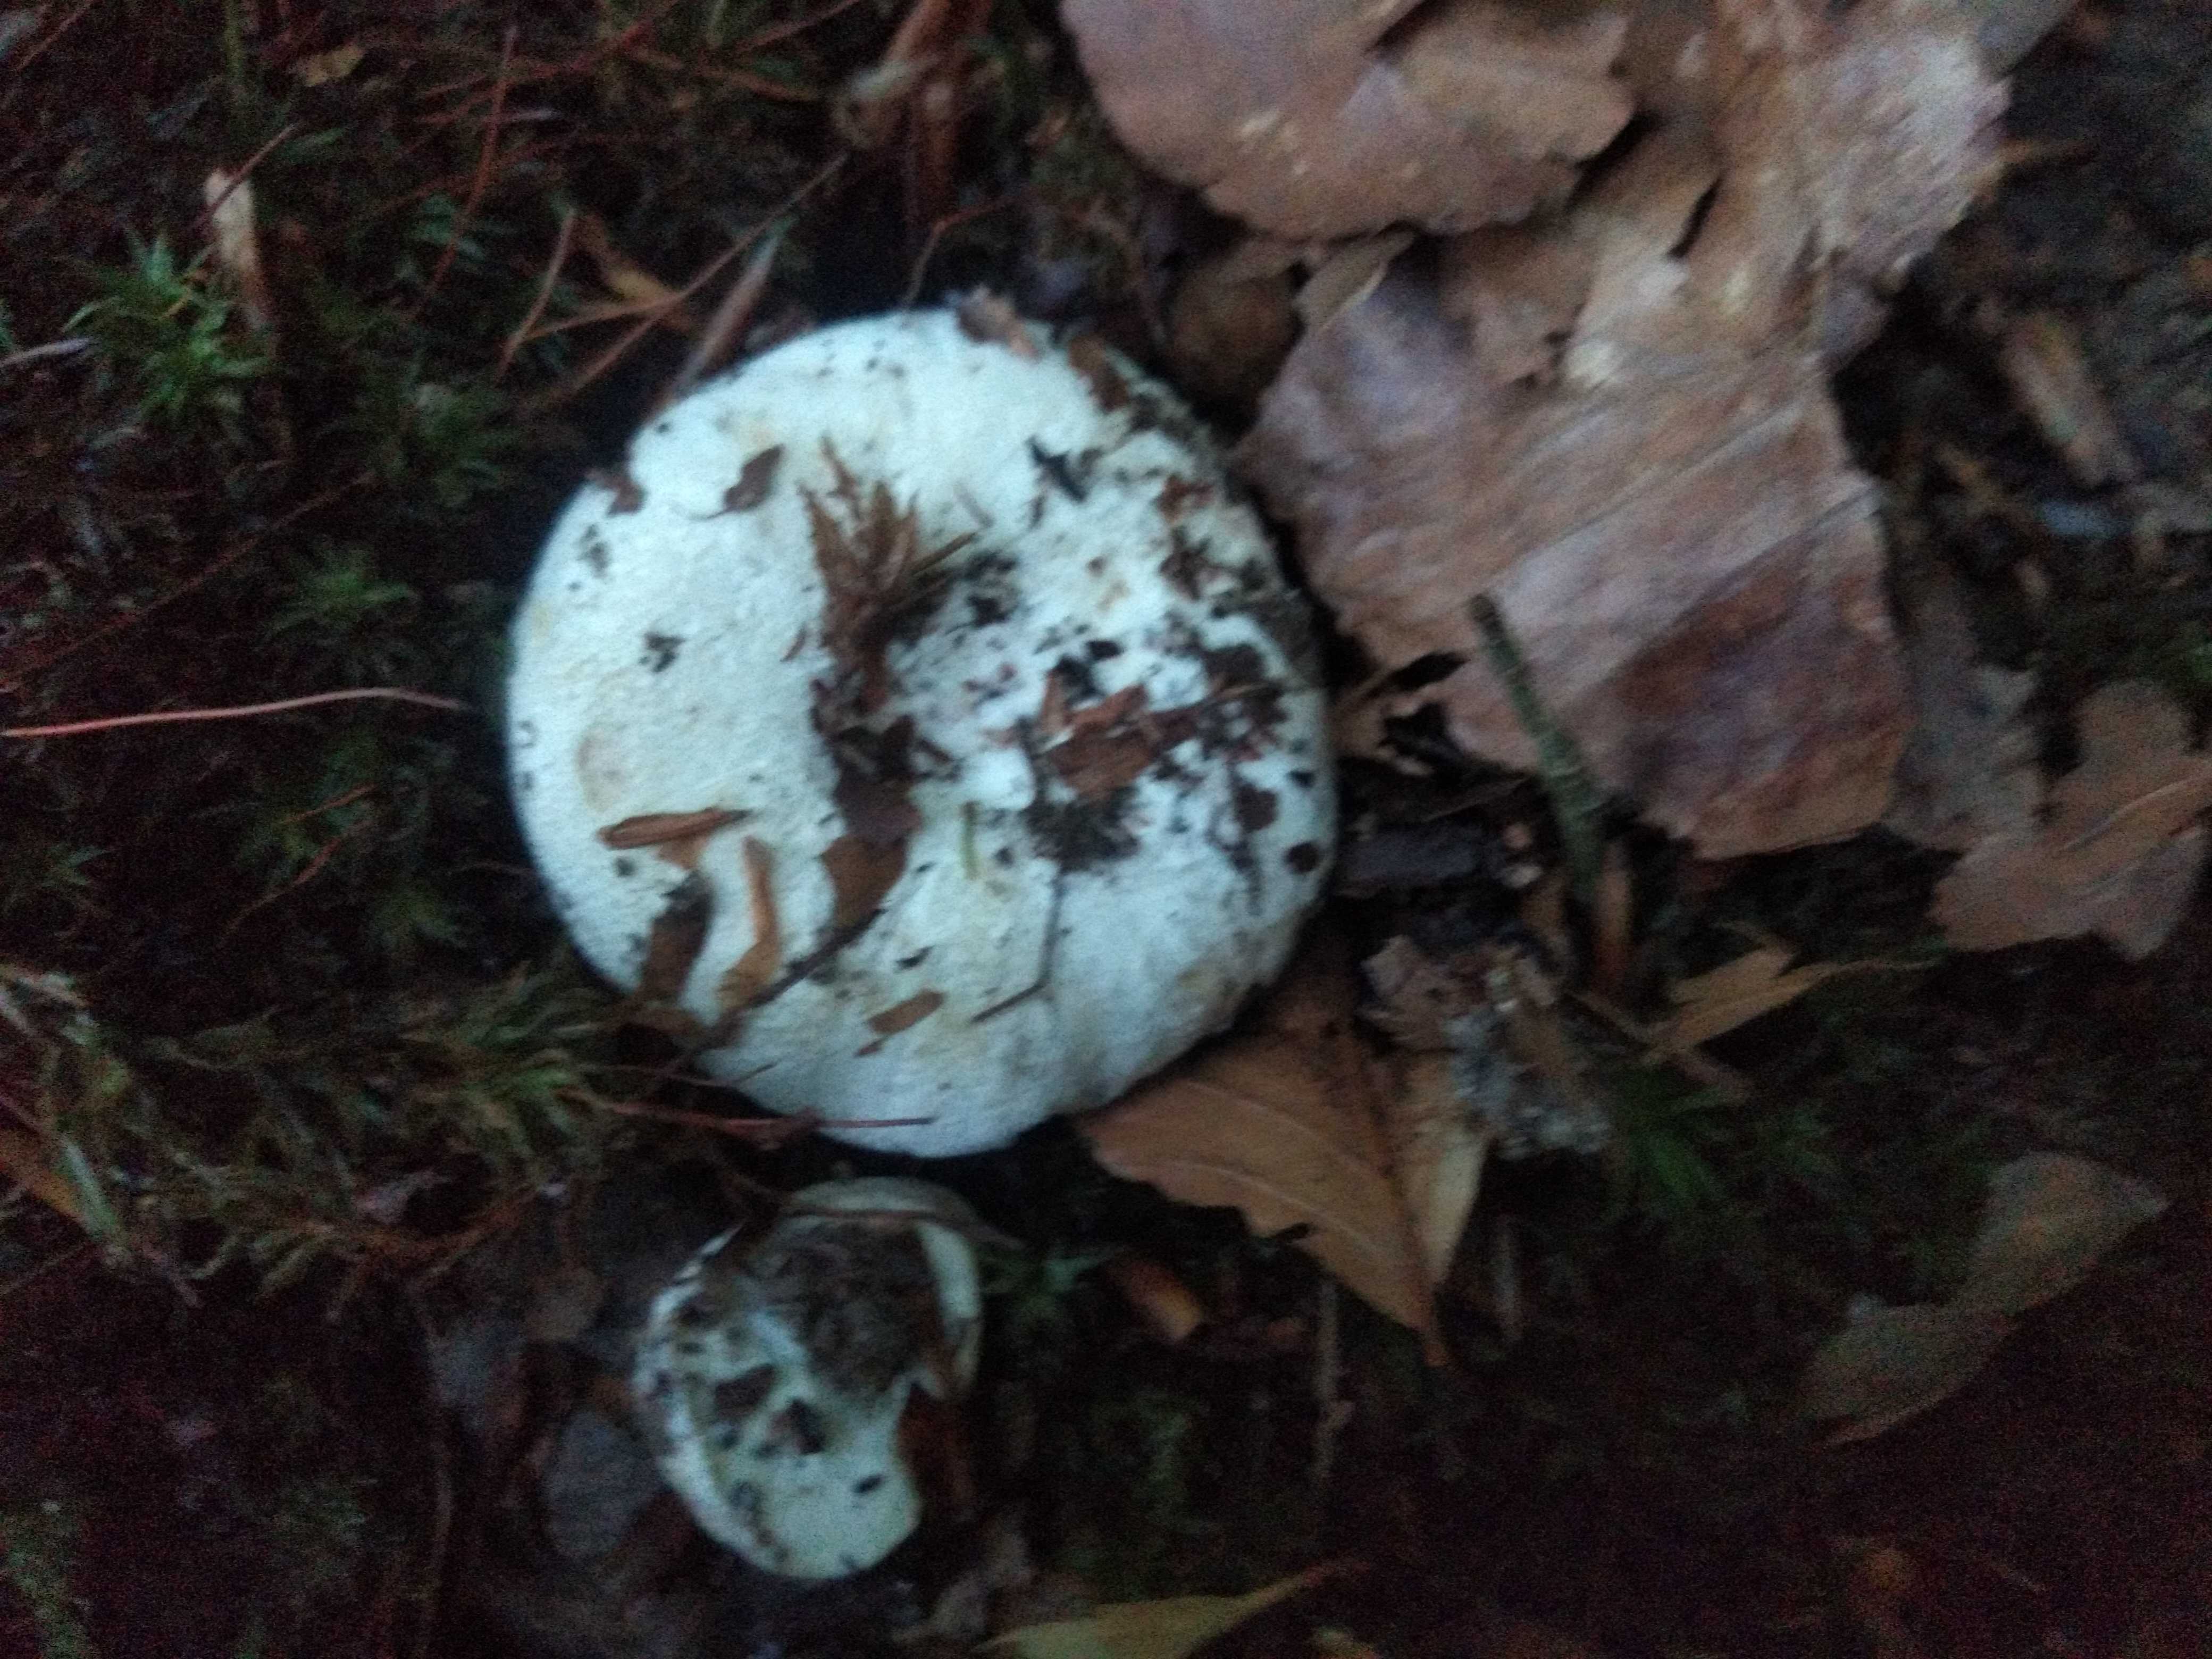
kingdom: Fungi
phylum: Basidiomycota
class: Agaricomycetes
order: Russulales
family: Russulaceae
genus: Lactifluus
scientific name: Lactifluus vellereus
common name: hvidfiltet mælkehat
